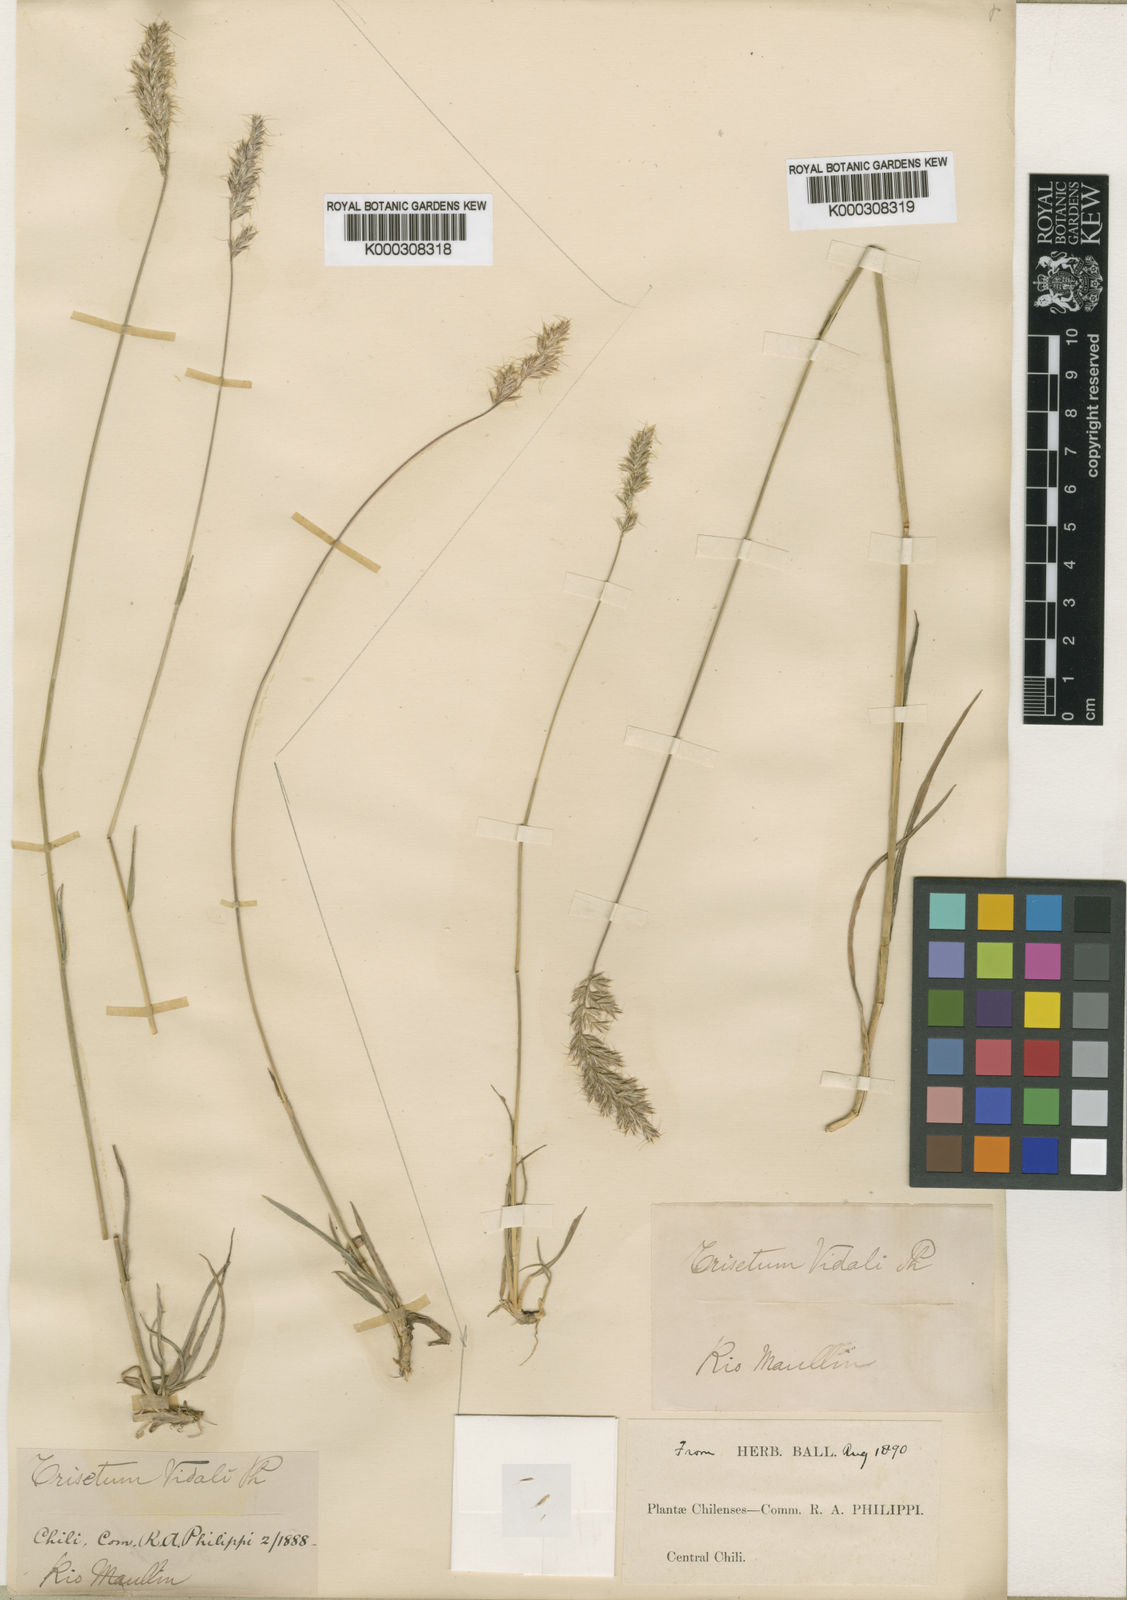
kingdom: Plantae
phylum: Tracheophyta
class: Liliopsida
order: Poales
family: Poaceae
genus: Trisetum
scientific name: Trisetum caudulatum
